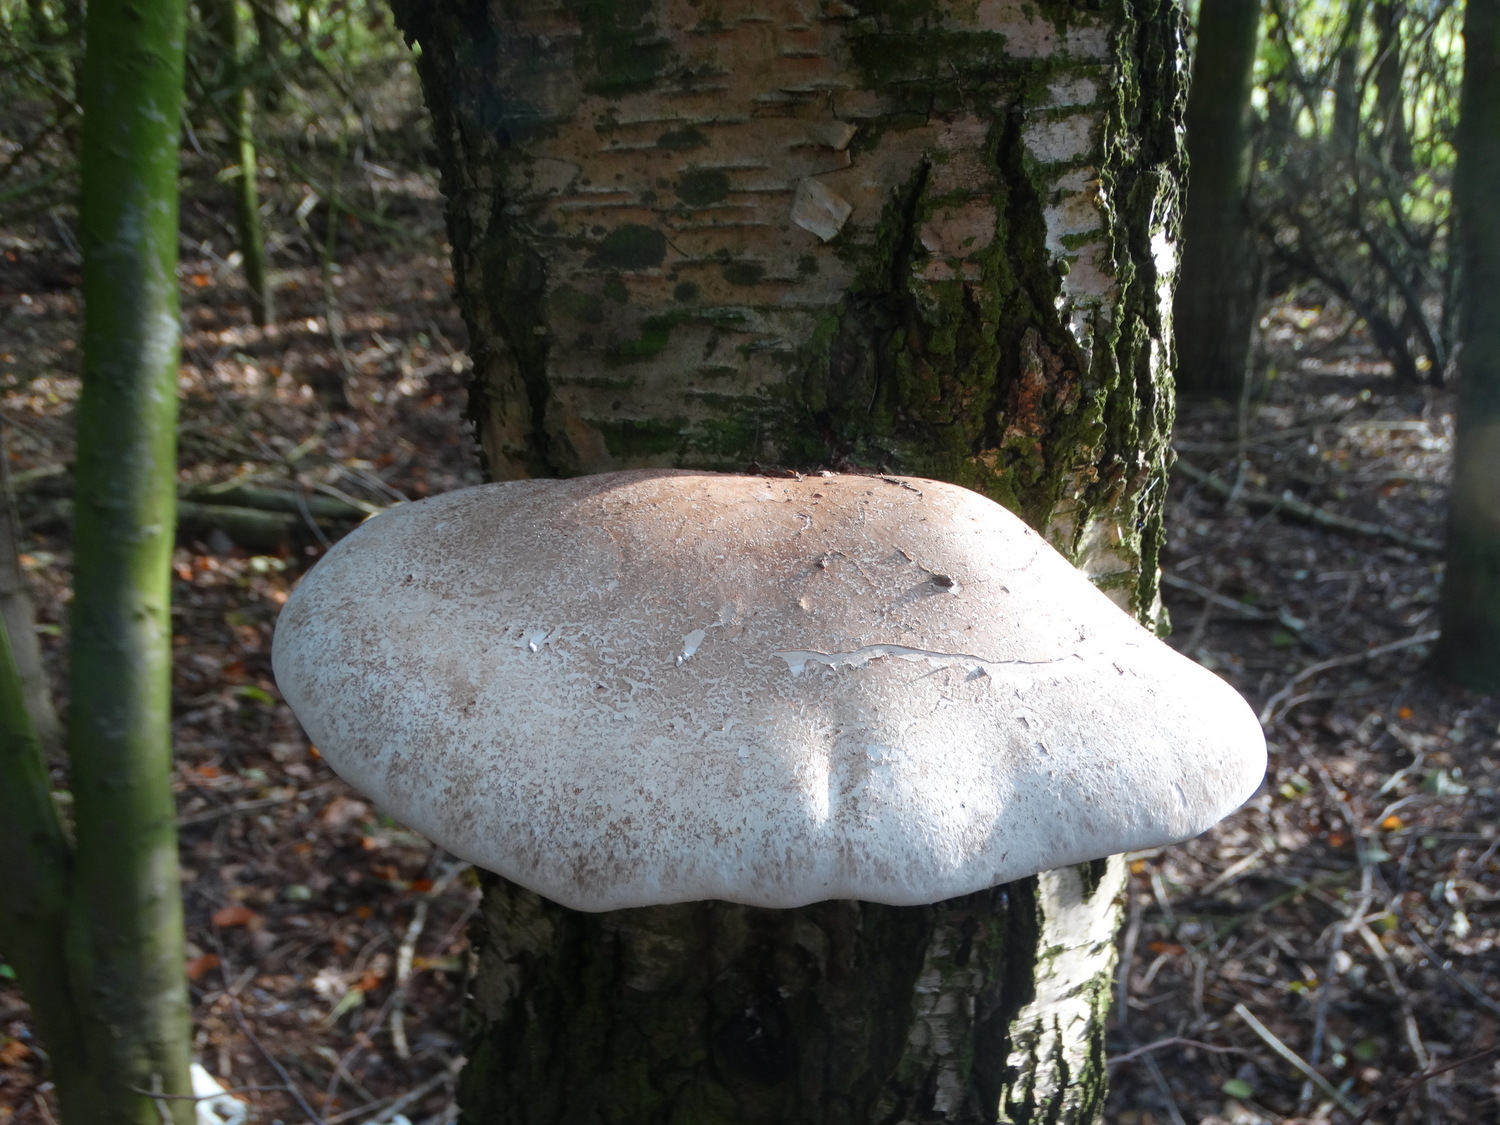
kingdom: Fungi
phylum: Basidiomycota
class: Agaricomycetes
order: Polyporales
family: Fomitopsidaceae
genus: Fomitopsis
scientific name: Fomitopsis betulina
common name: birkeporesvamp
